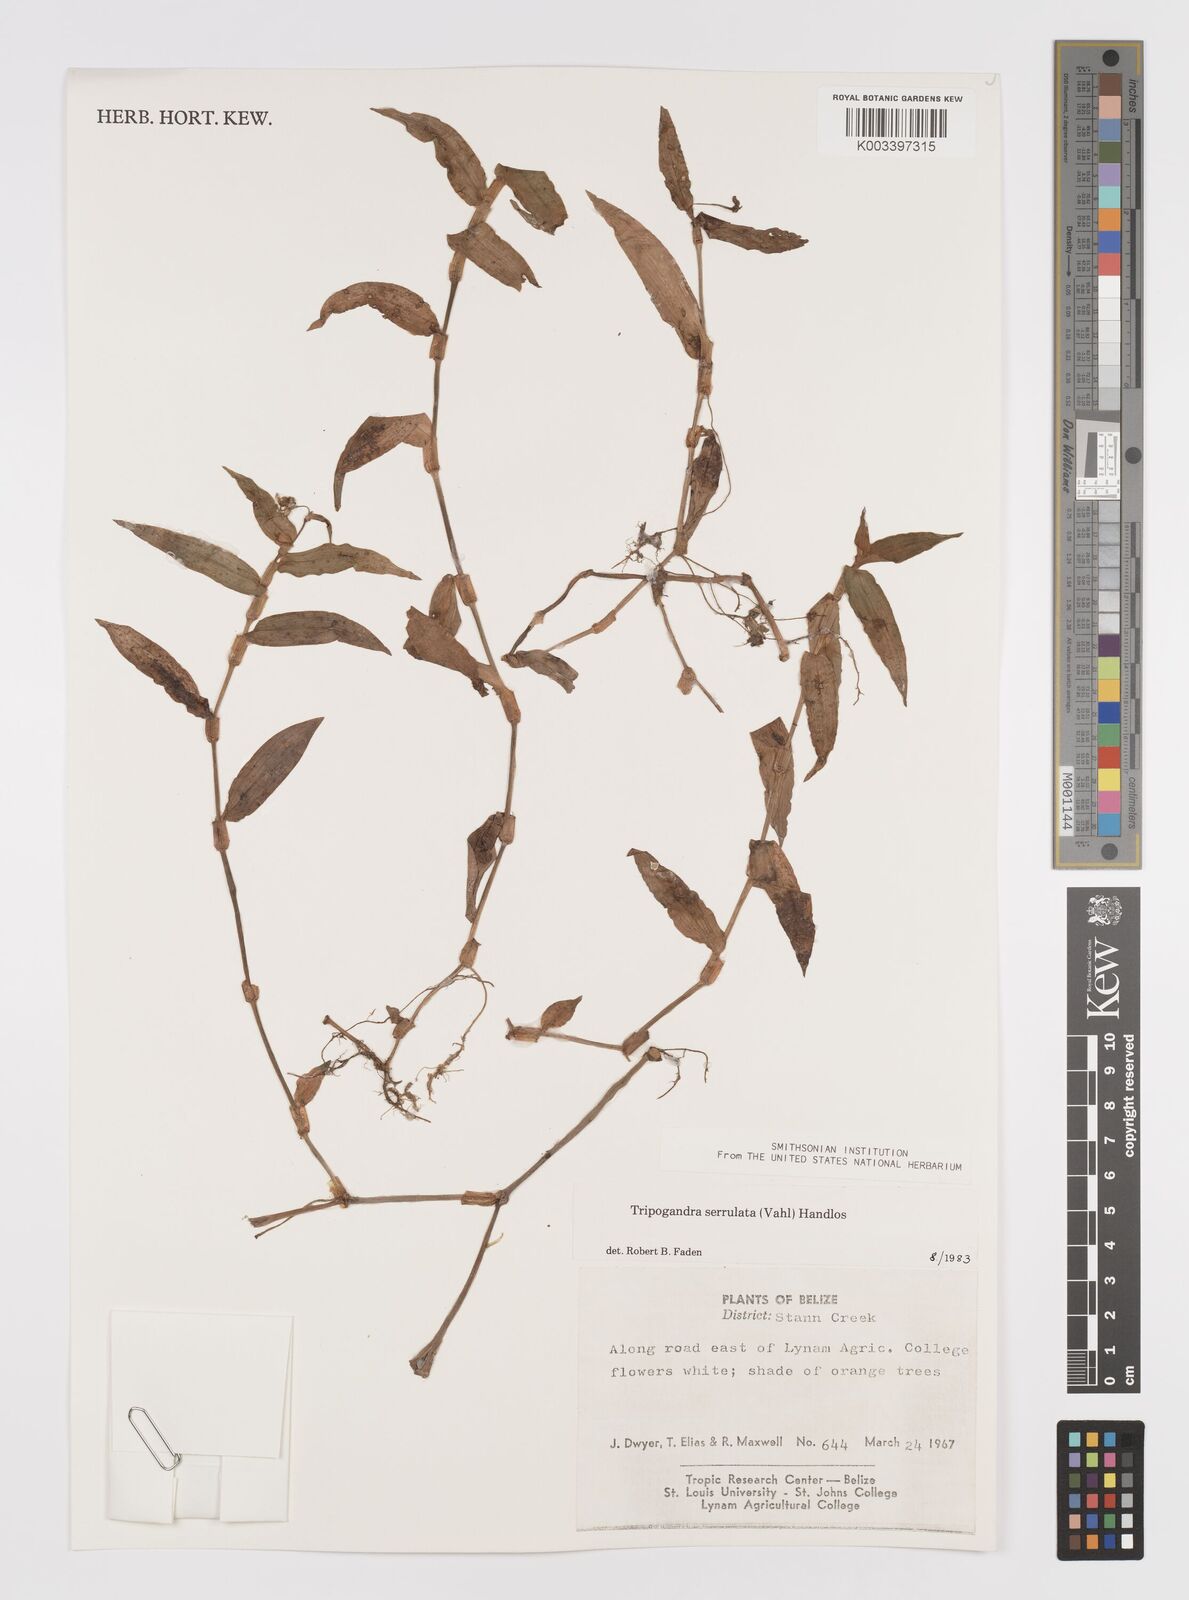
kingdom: Plantae
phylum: Tracheophyta
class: Liliopsida
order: Commelinales
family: Commelinaceae
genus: Callisia
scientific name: Callisia serrulata
